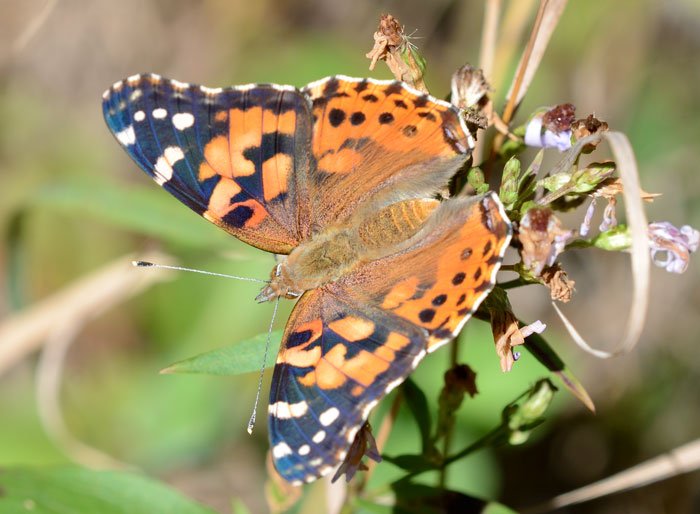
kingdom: Animalia
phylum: Arthropoda
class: Insecta
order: Lepidoptera
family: Nymphalidae
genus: Vanessa
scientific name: Vanessa cardui
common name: Painted Lady
